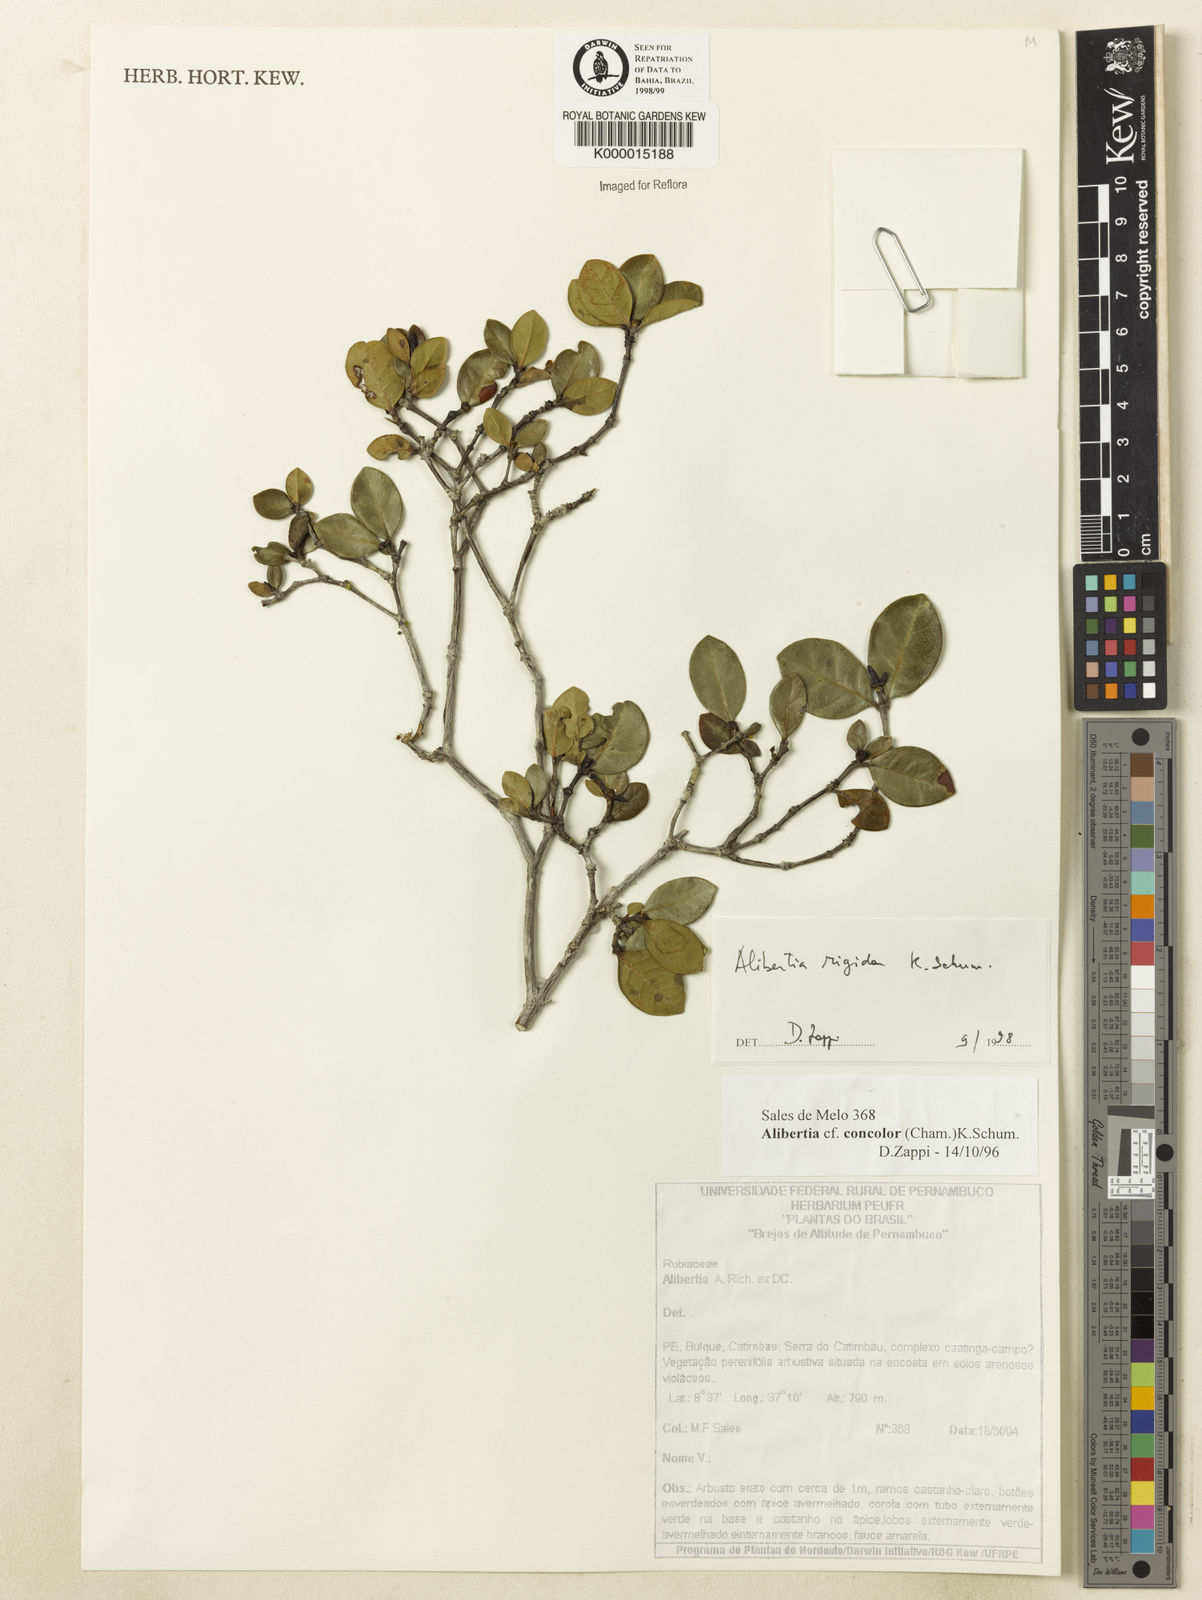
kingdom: Plantae
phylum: Tracheophyta
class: Magnoliopsida
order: Gentianales
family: Rubiaceae
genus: Cordiera
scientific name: Cordiera rigida
